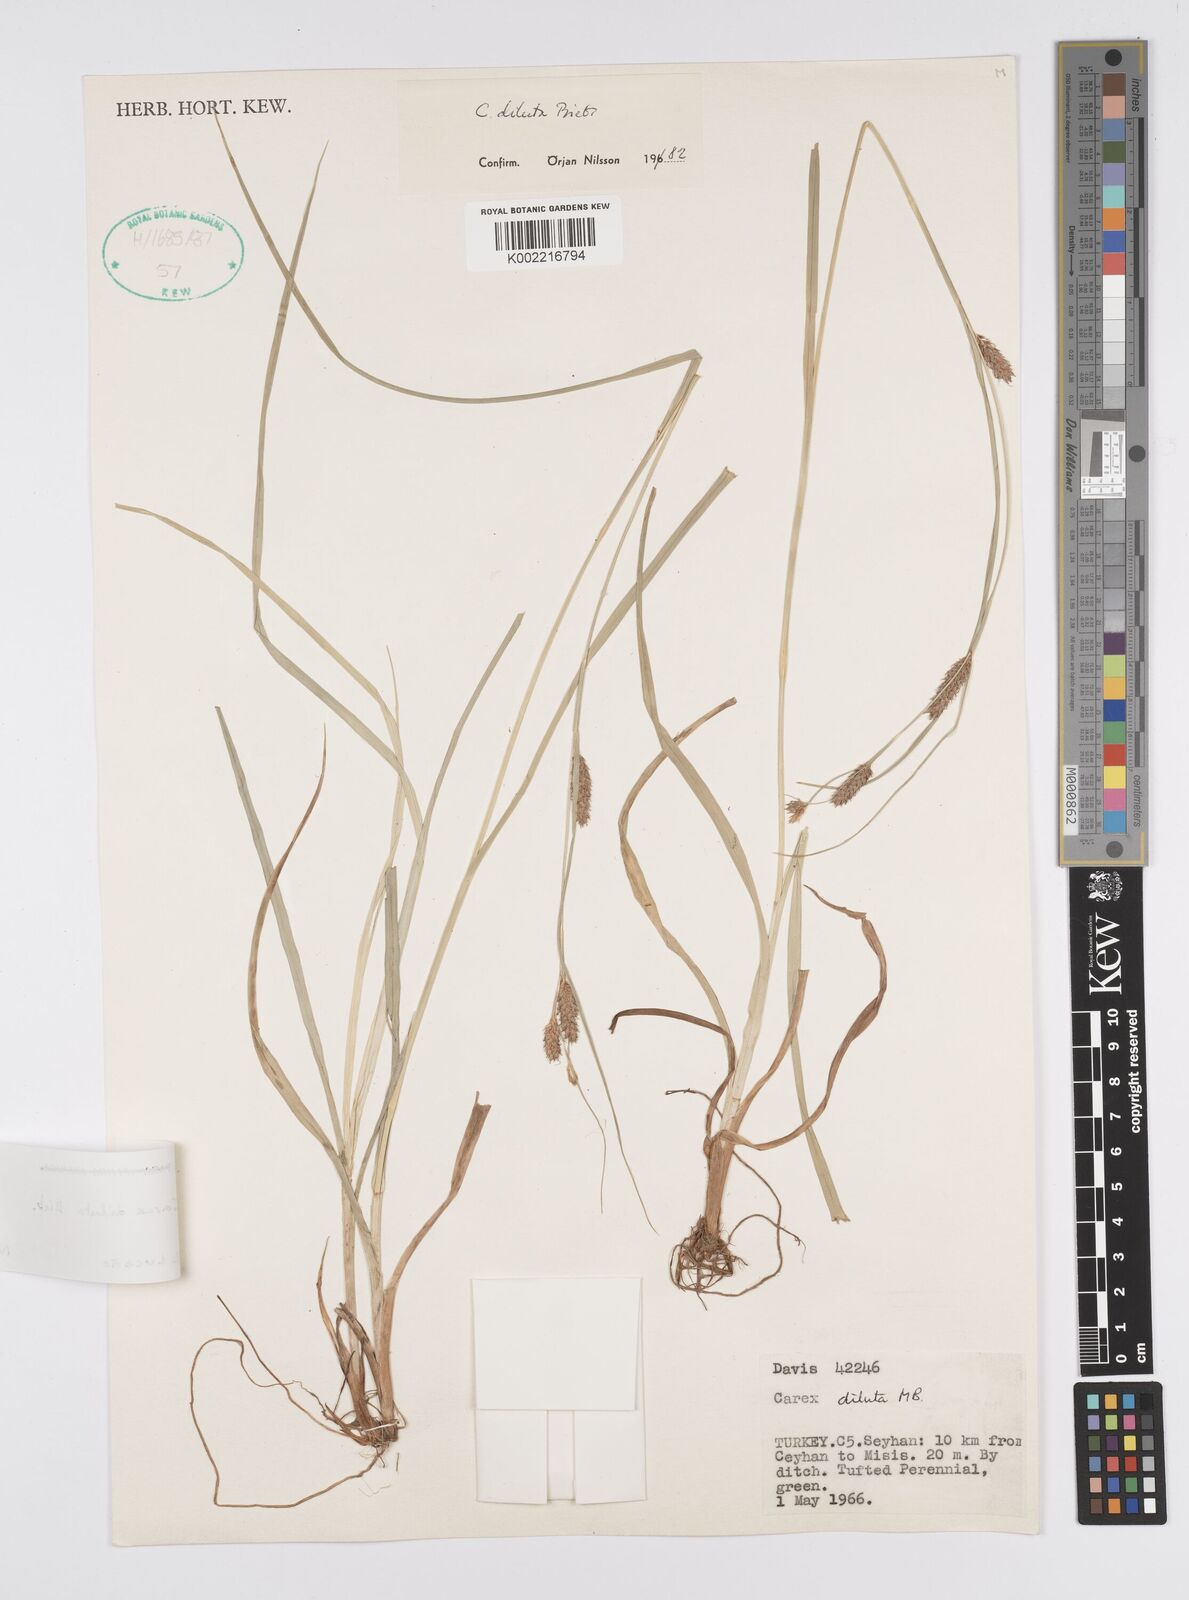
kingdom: Plantae
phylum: Tracheophyta
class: Liliopsida
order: Poales
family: Cyperaceae
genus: Carex
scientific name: Carex diluta
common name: Sedge
